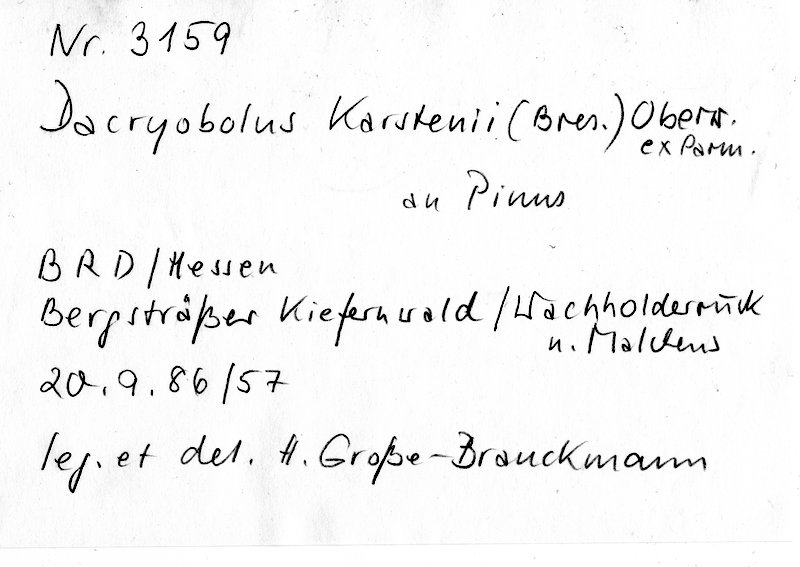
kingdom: Fungi
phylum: Basidiomycota
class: Agaricomycetes
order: Polyporales
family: Dacryobolaceae
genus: Dacryobolus
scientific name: Dacryobolus karstenii
